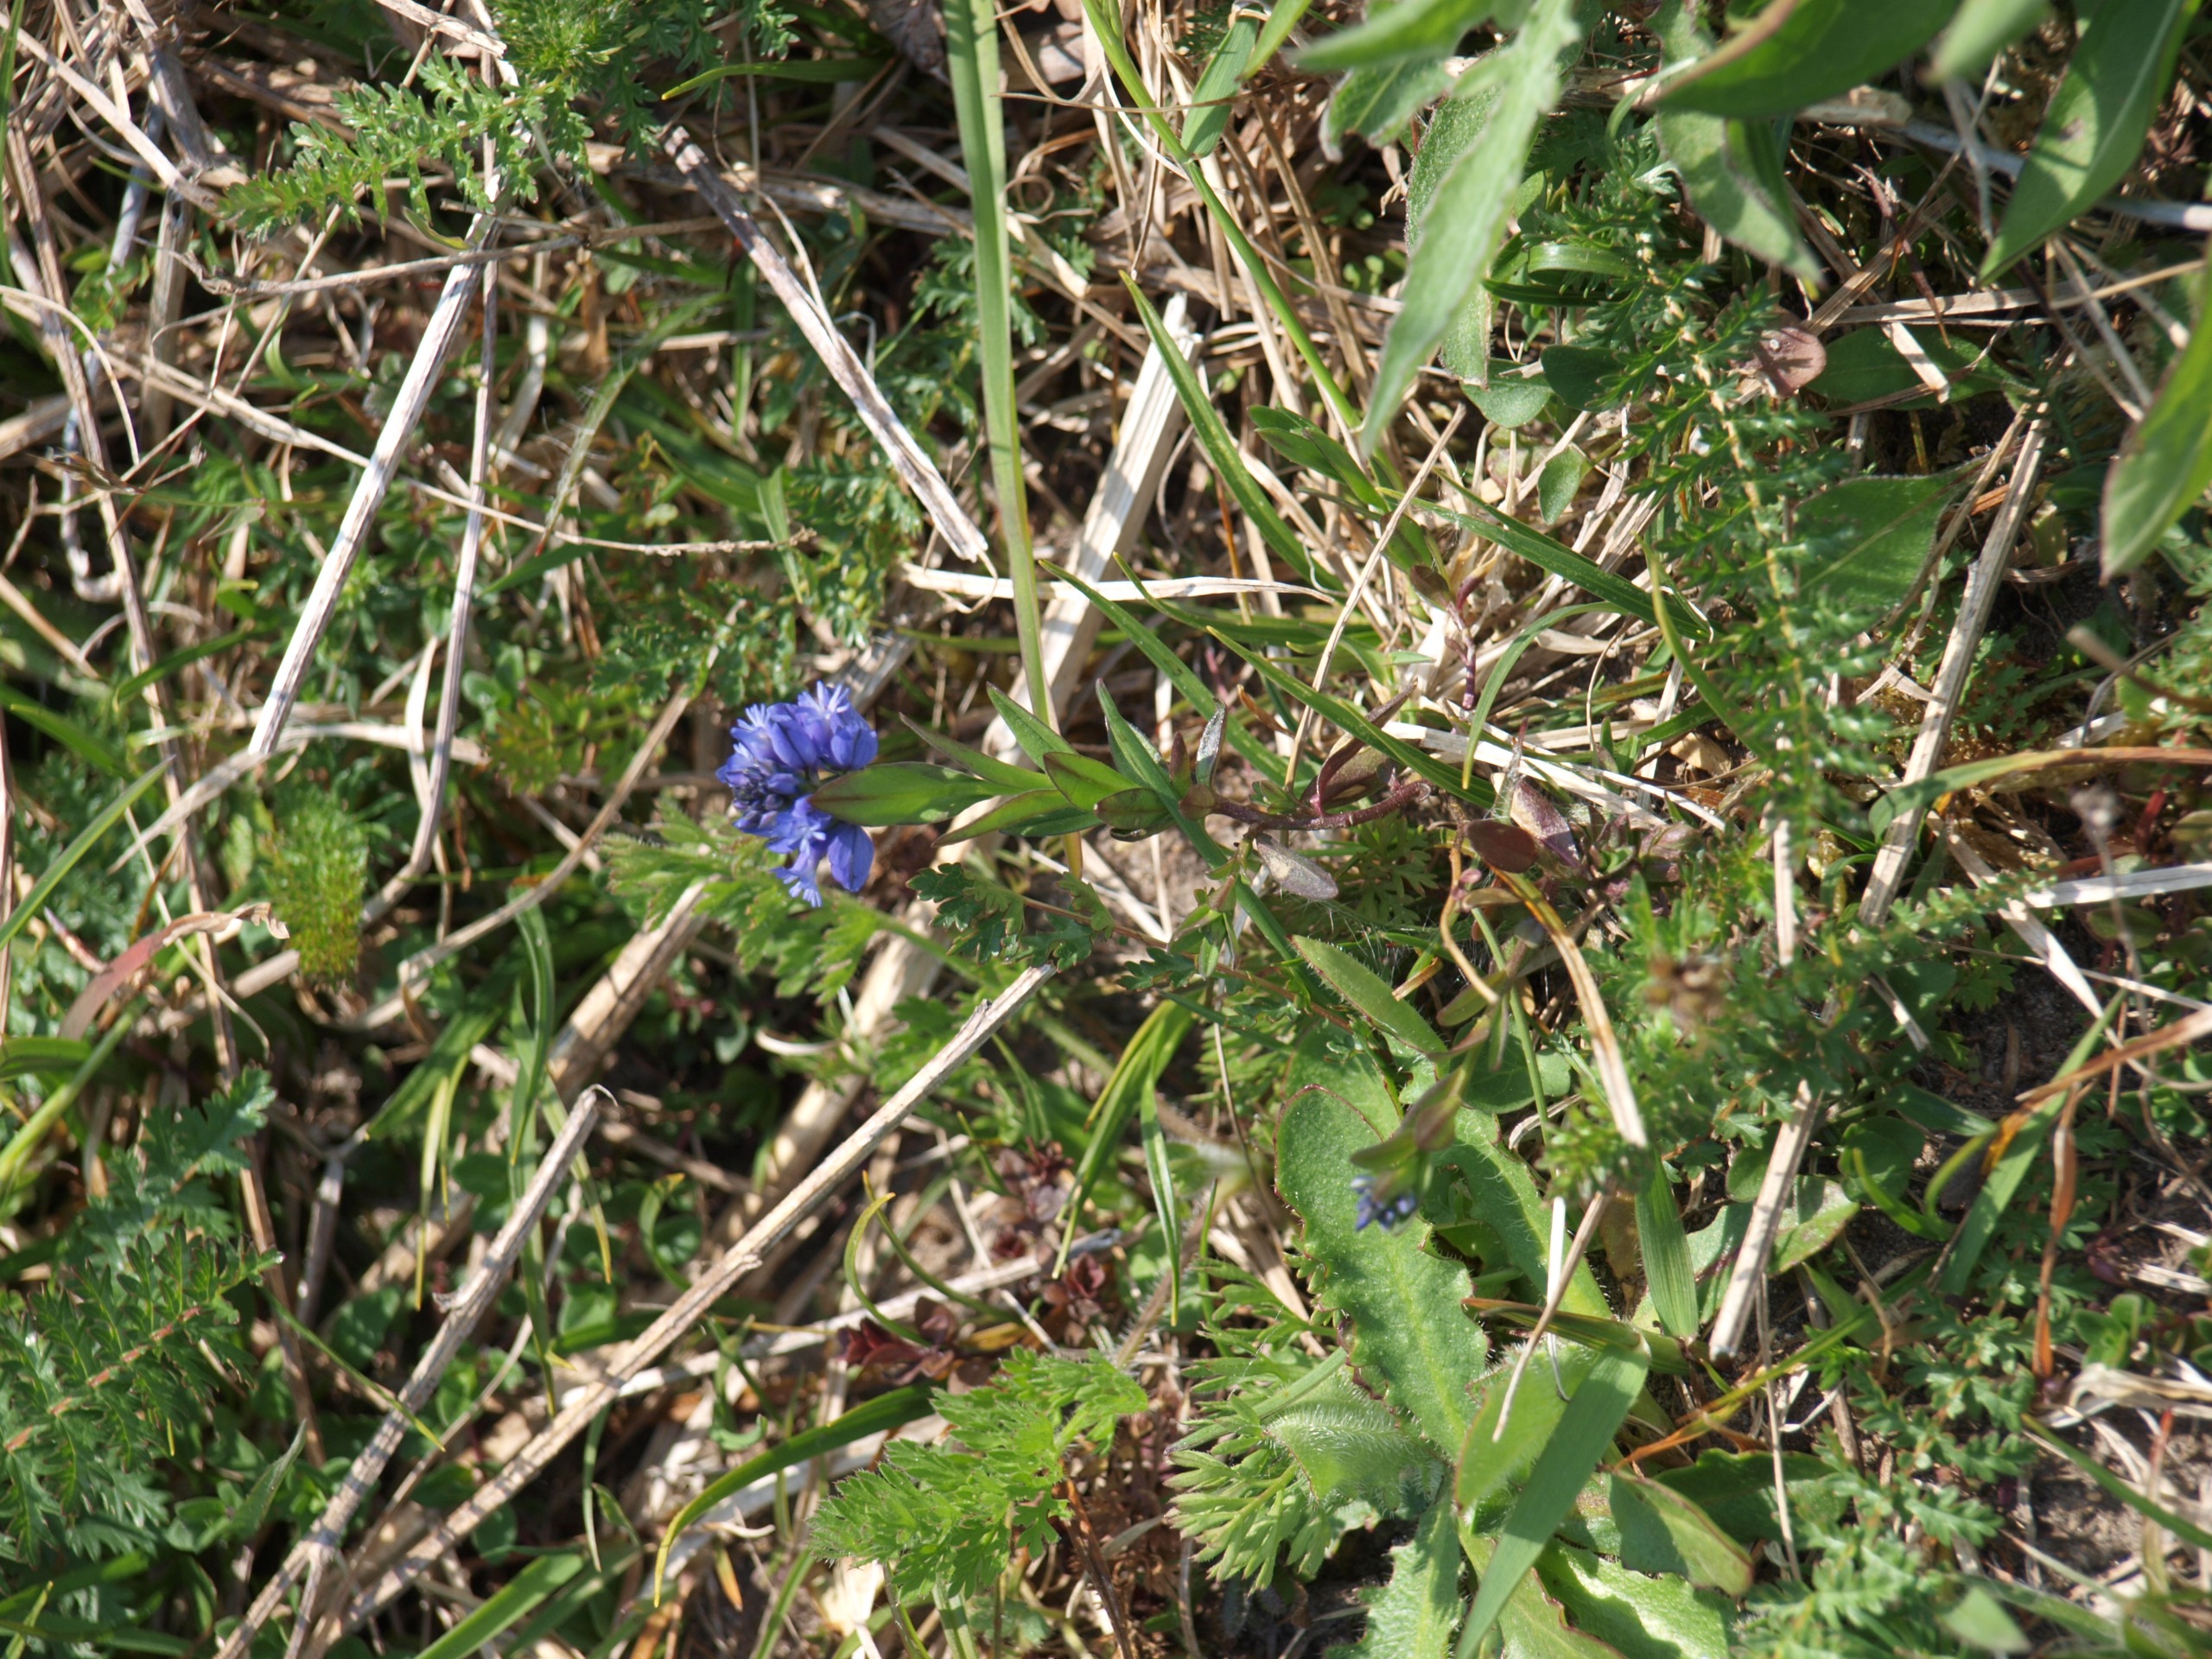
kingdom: Plantae
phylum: Tracheophyta
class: Magnoliopsida
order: Fabales
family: Polygalaceae
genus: Polygala
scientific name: Polygala vulgaris
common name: Almindelig mælkeurt
